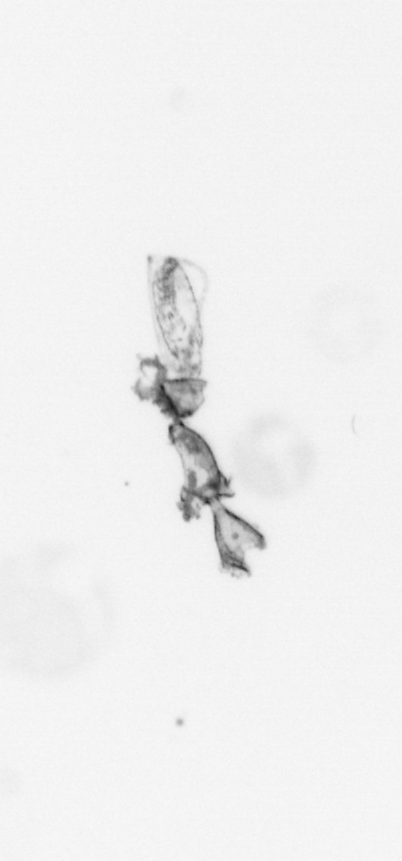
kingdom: Animalia
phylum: Arthropoda
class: Maxillopoda
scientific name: Maxillopoda
